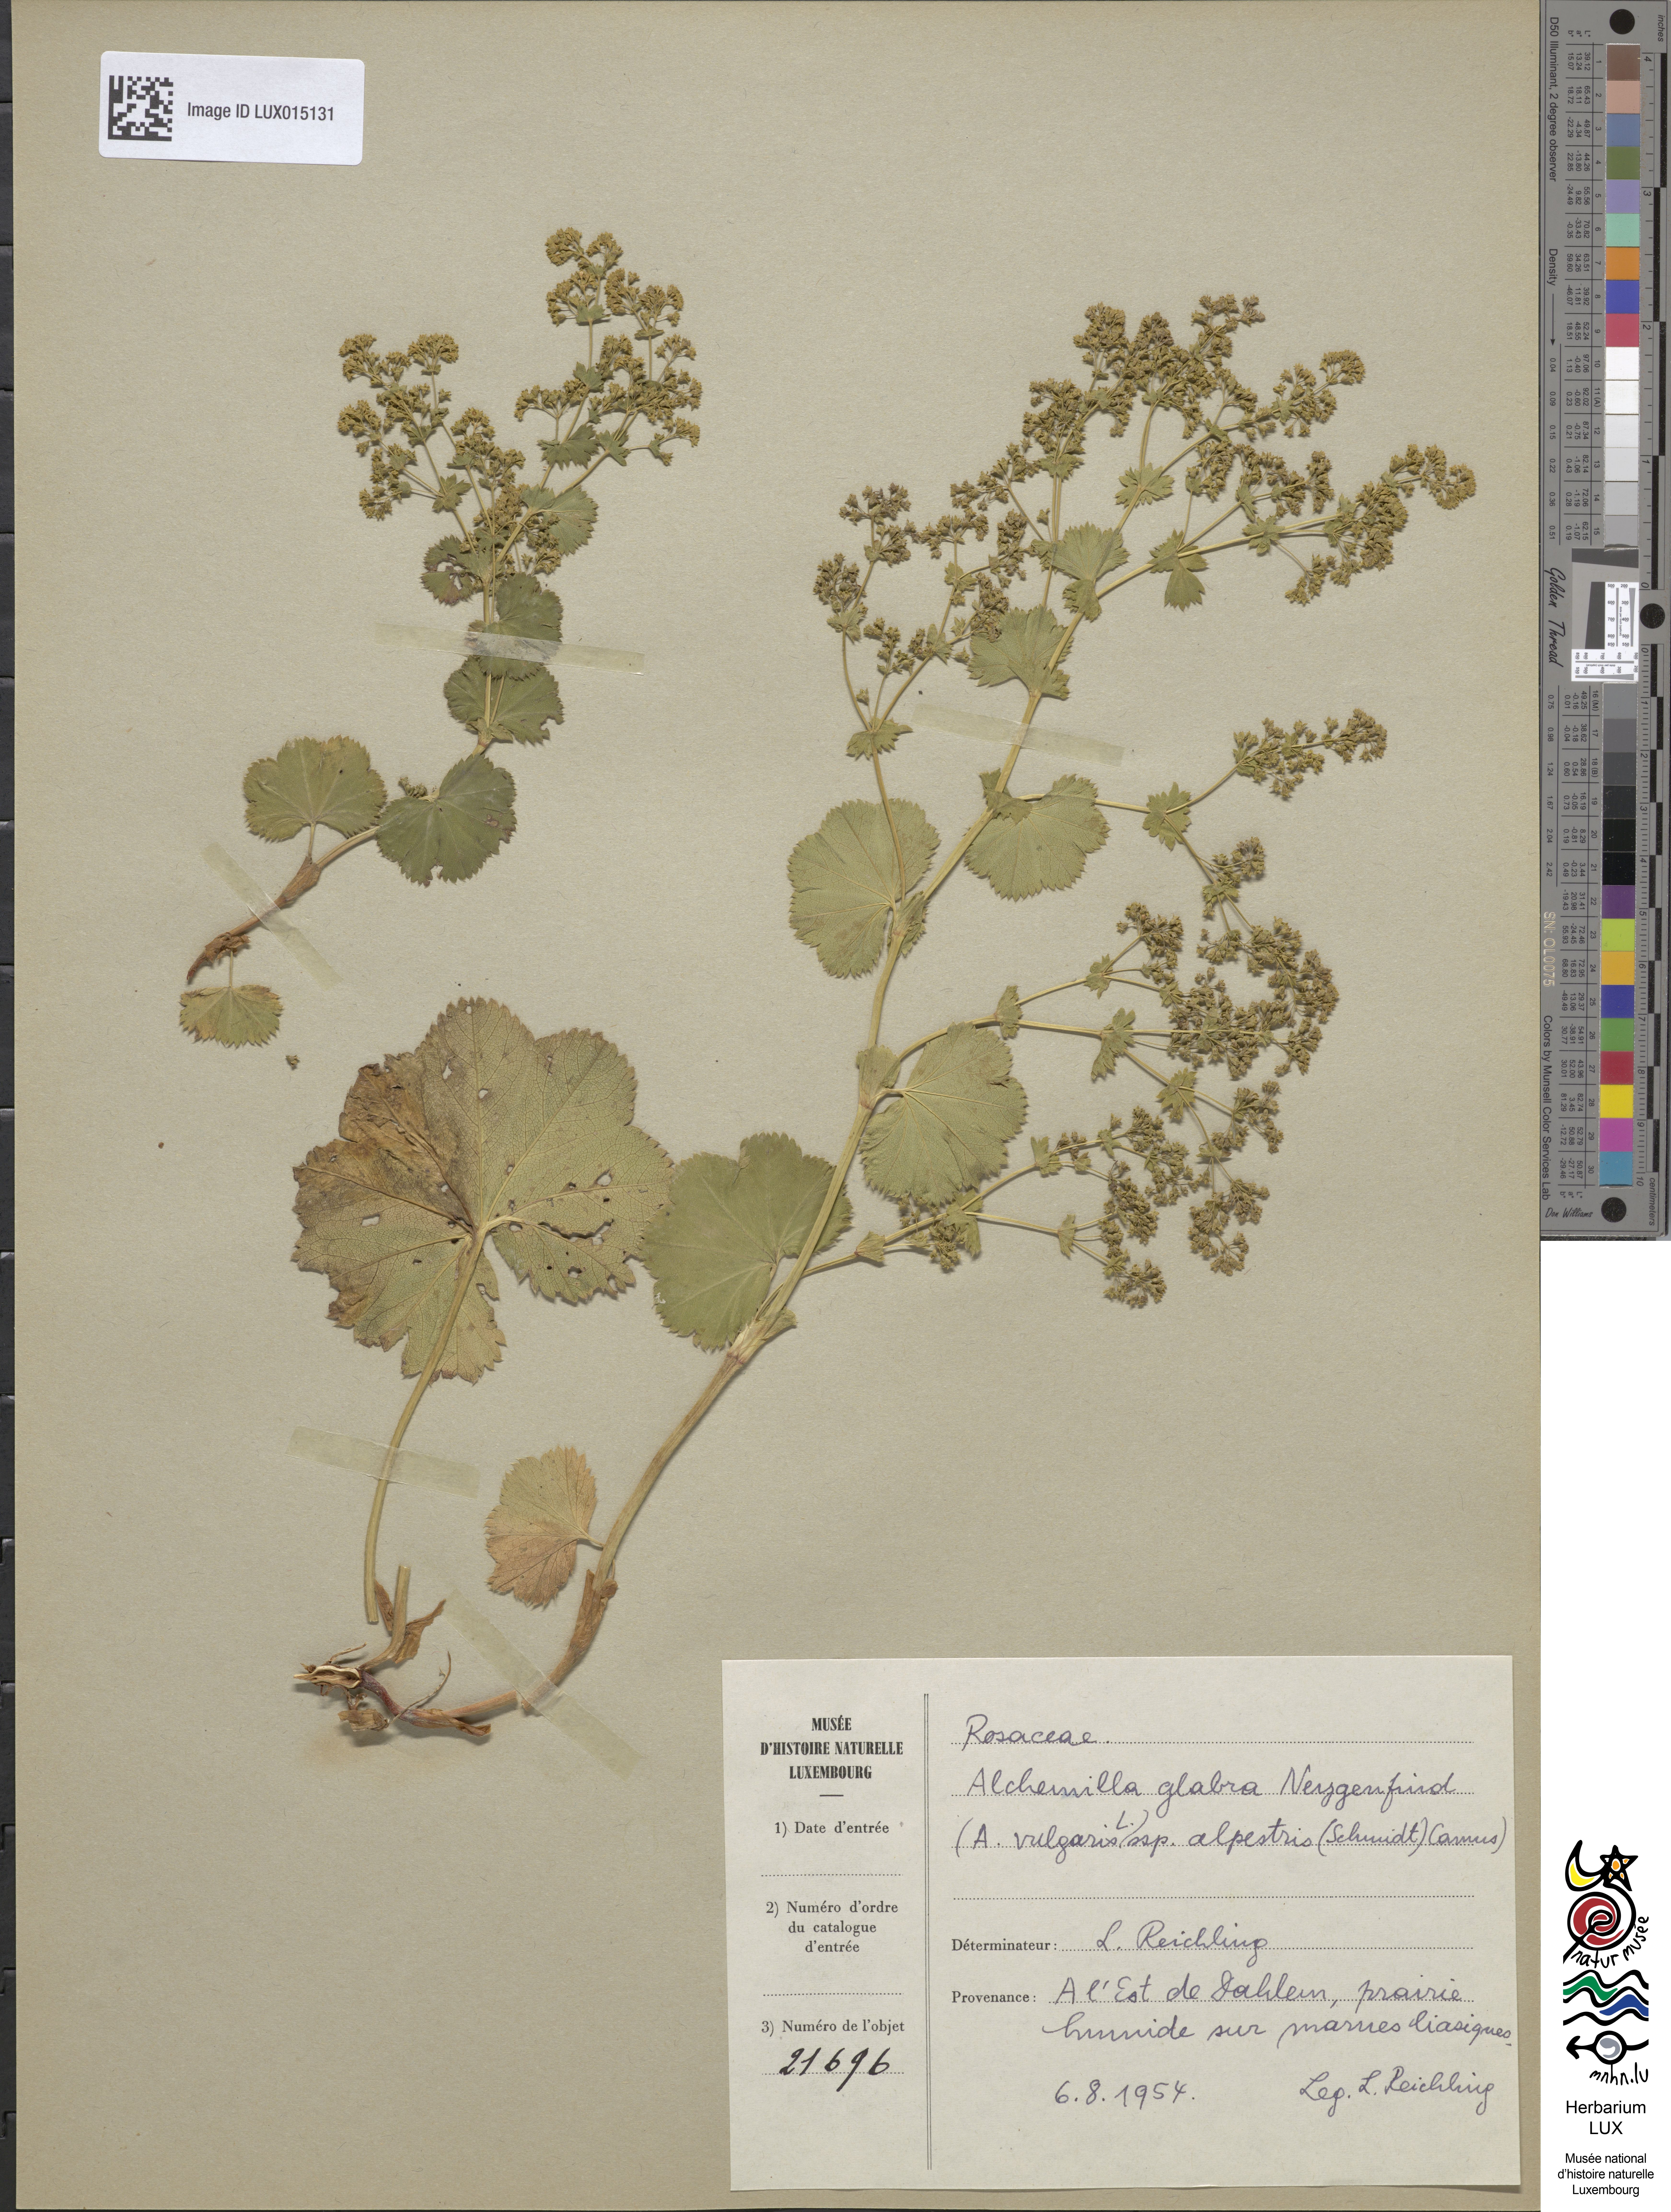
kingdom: Plantae
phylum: Tracheophyta
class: Magnoliopsida
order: Rosales
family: Rosaceae
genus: Alchemilla
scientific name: Alchemilla glabra
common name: Smooth lady's-mantle
